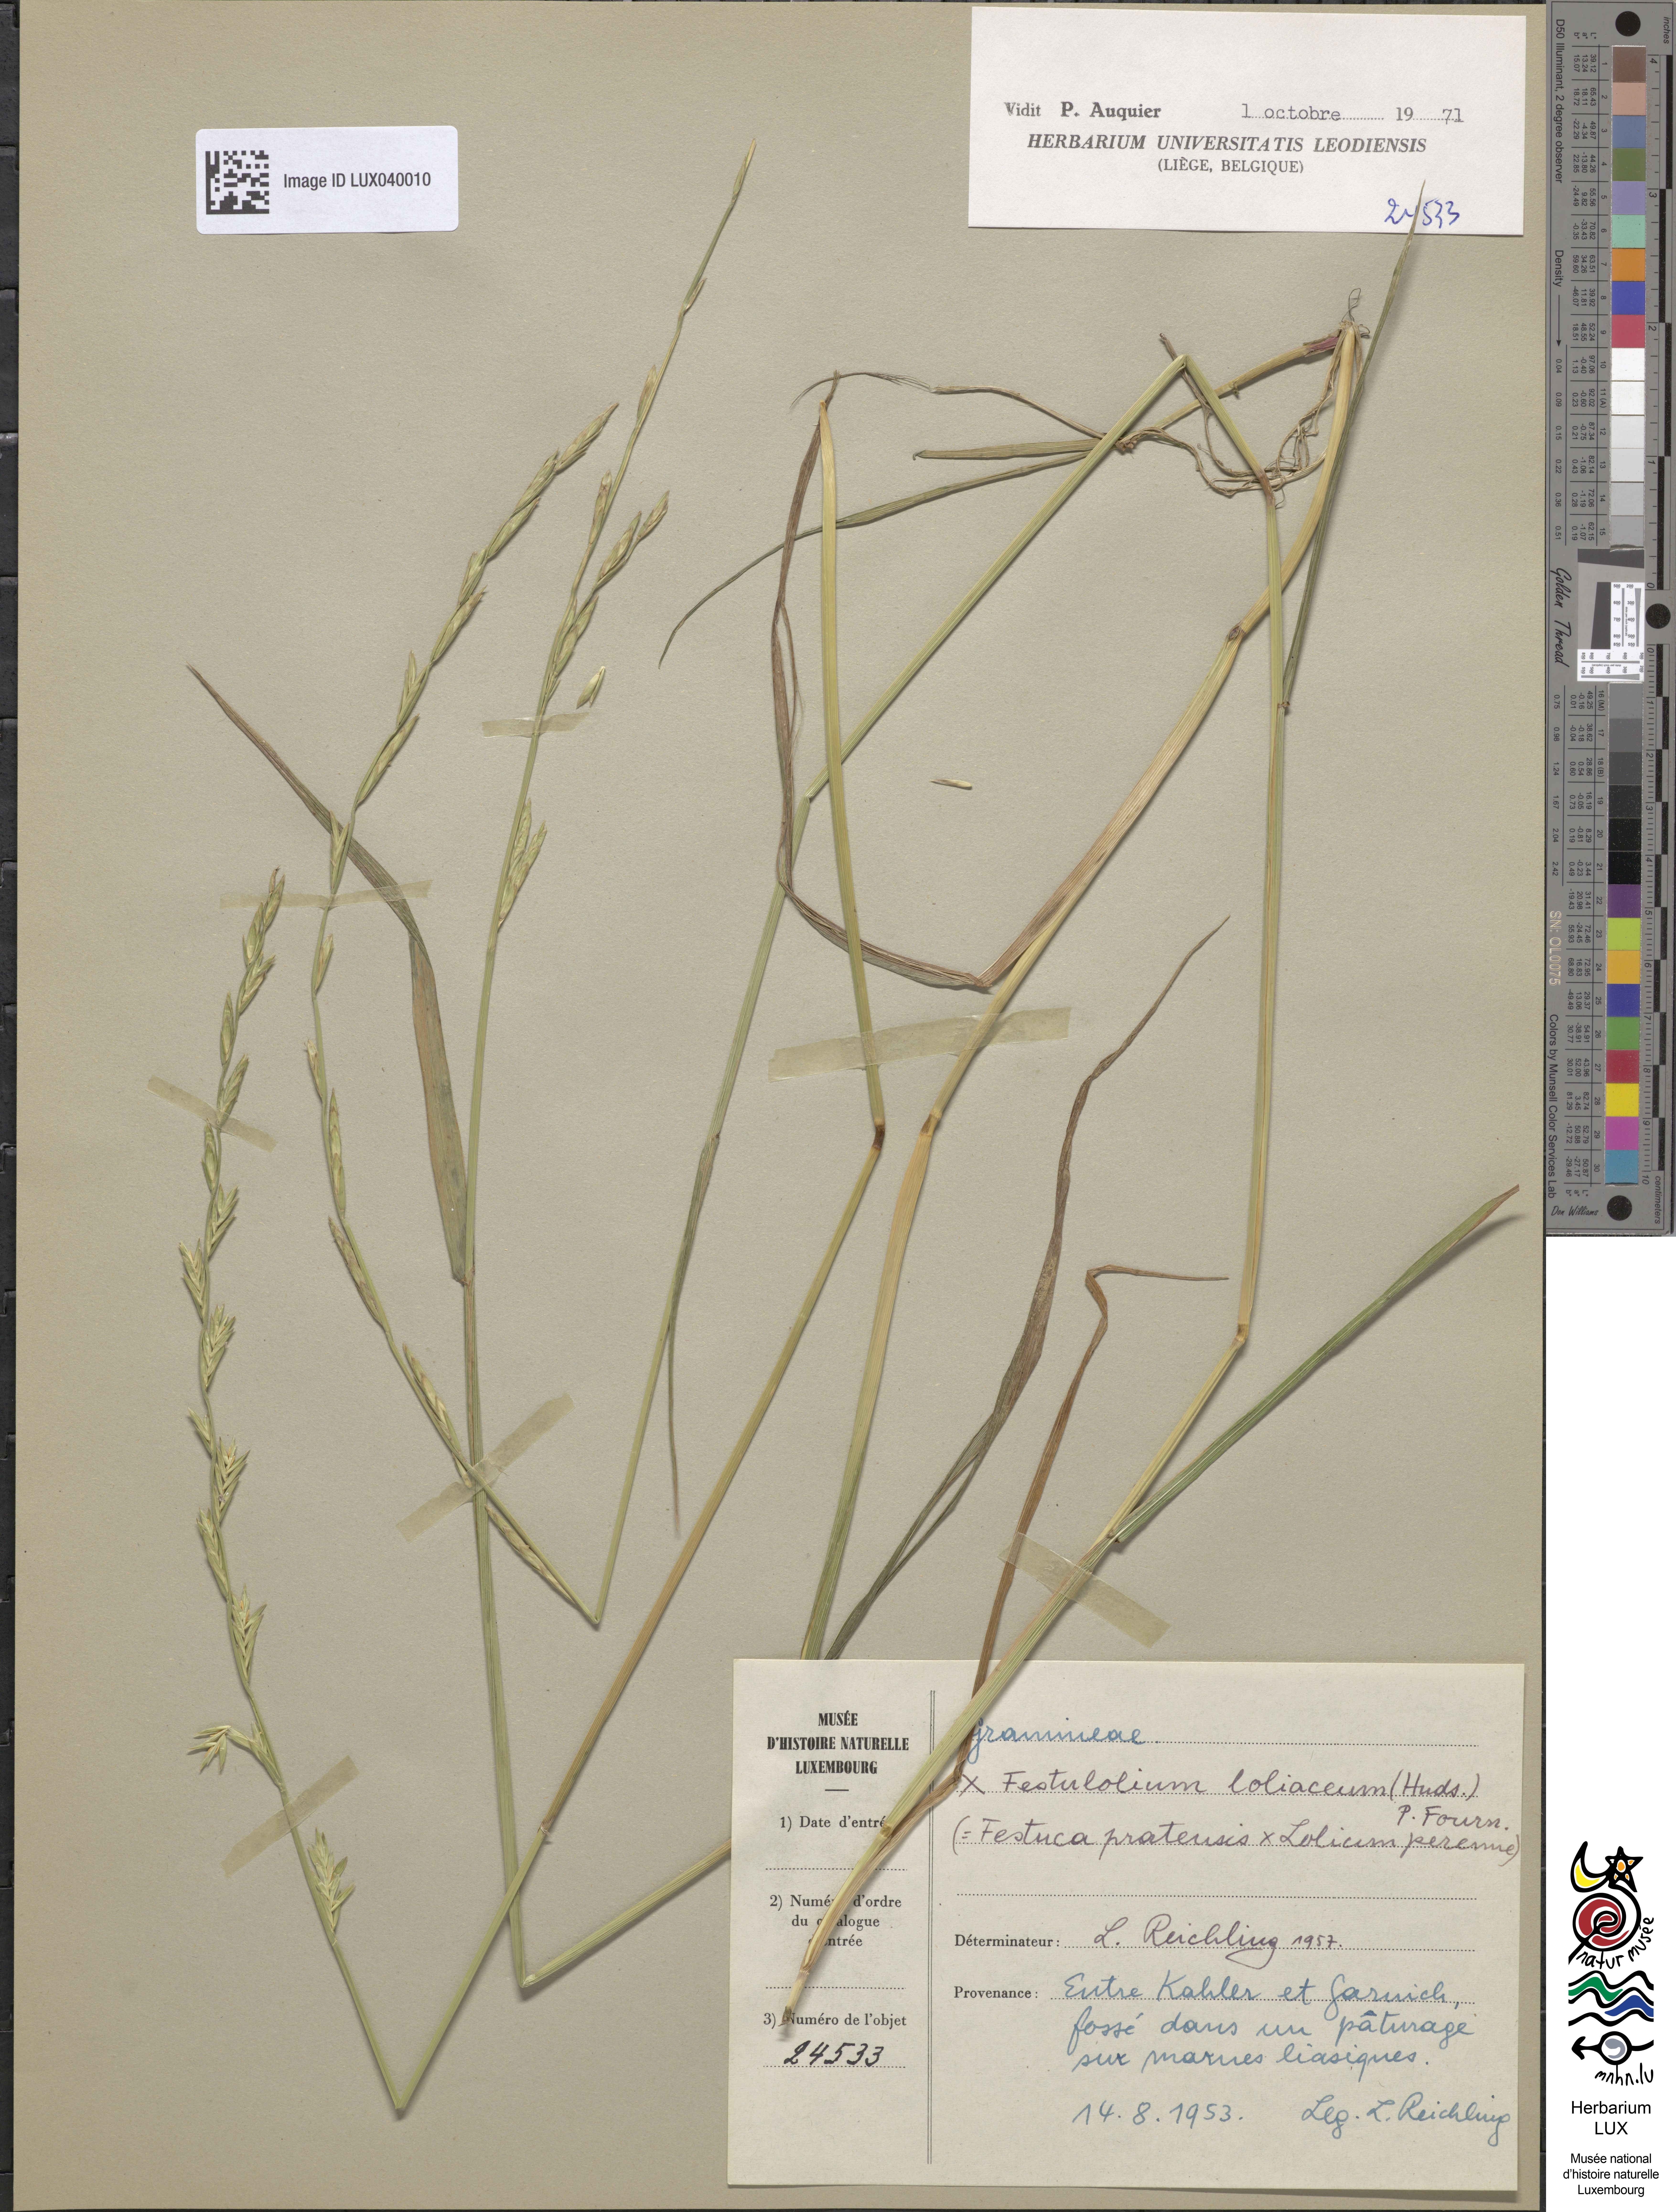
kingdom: Plantae
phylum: Tracheophyta
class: Liliopsida
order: Poales
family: Poaceae
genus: Lolium
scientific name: Lolium elongatum
